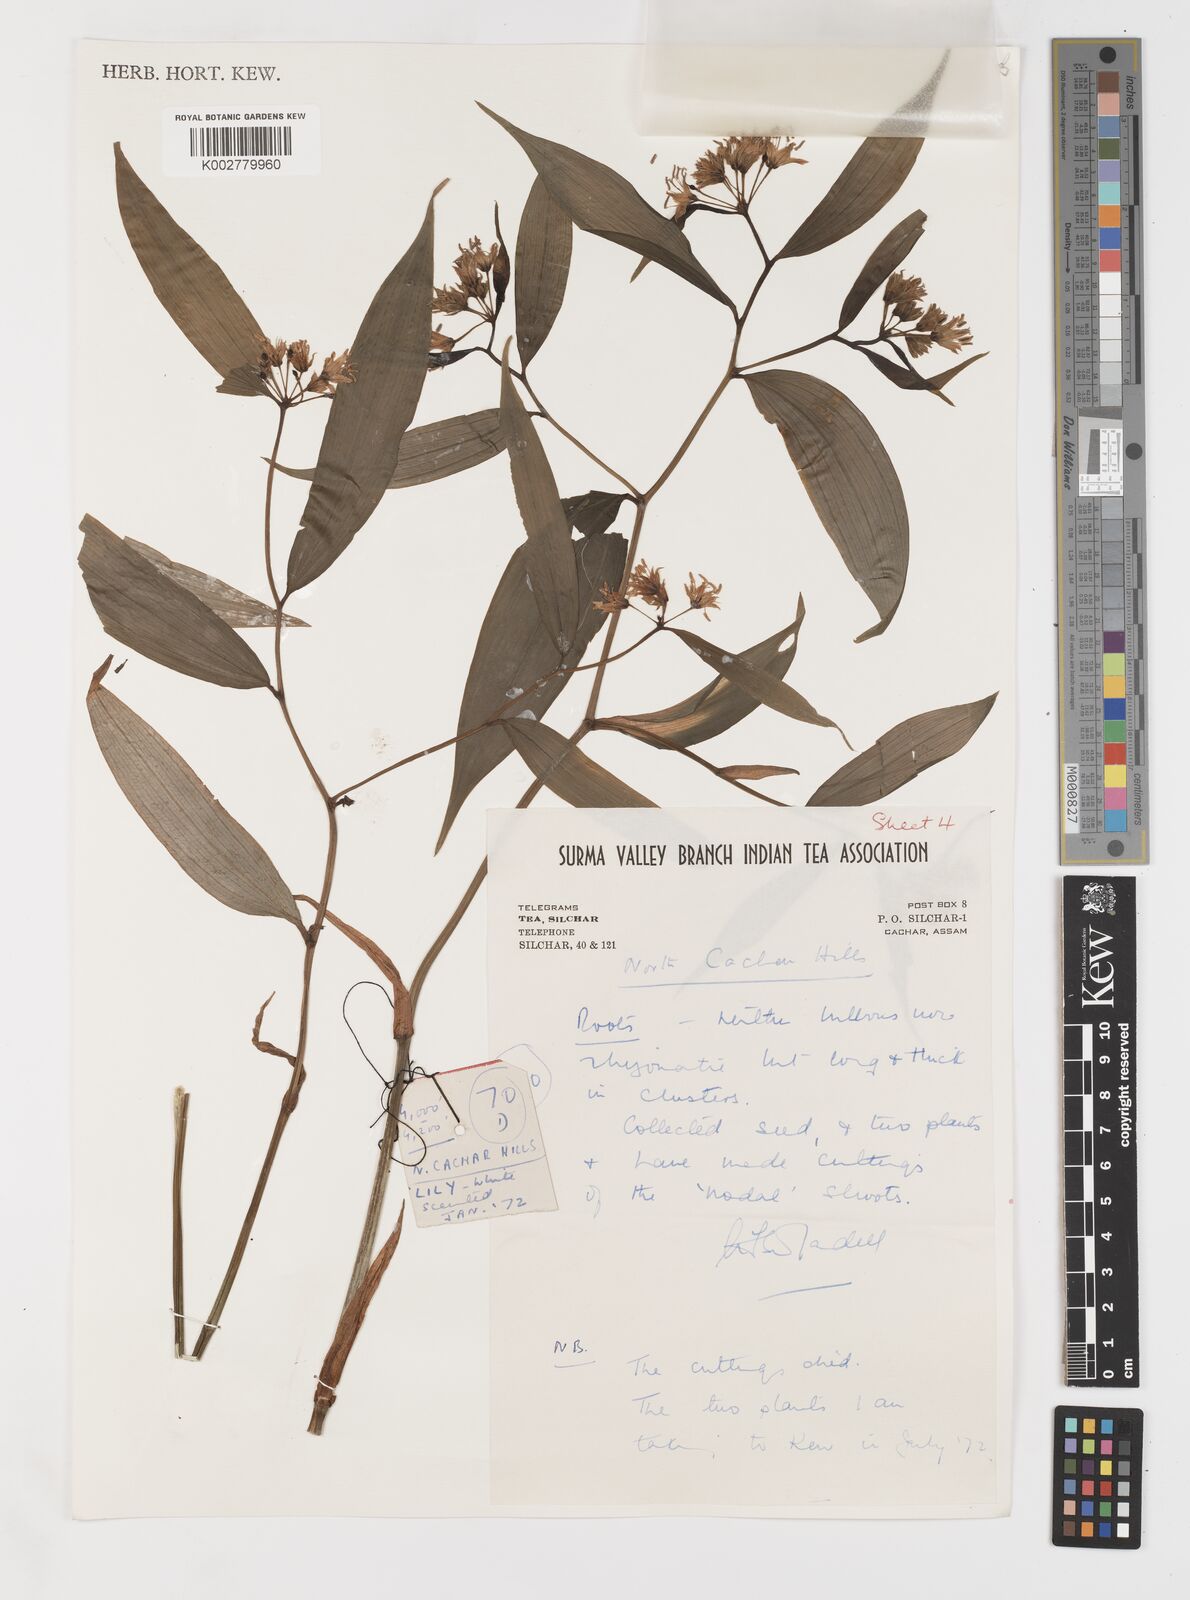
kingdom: Plantae
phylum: Tracheophyta
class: Liliopsida
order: Liliales
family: Colchicaceae
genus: Disporum
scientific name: Disporum cantoniense
